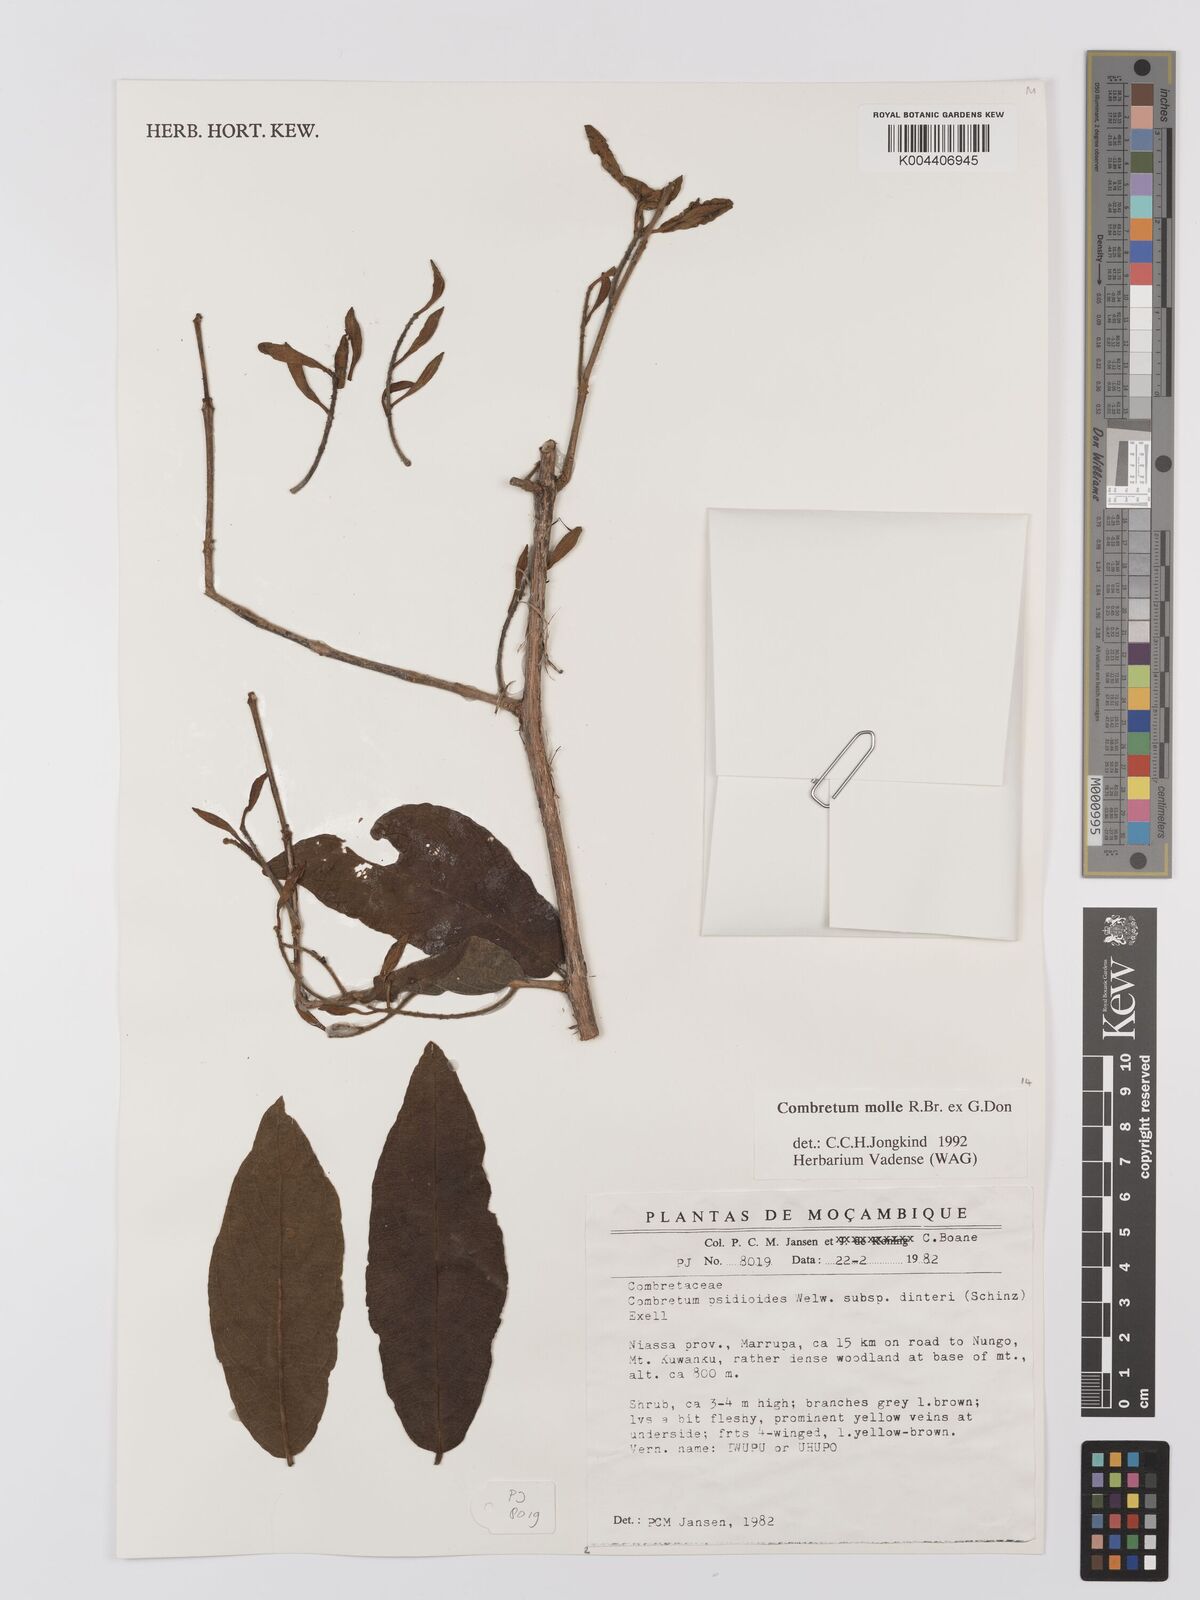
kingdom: Plantae
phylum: Tracheophyta
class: Magnoliopsida
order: Myrtales
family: Combretaceae
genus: Combretum
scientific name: Combretum
